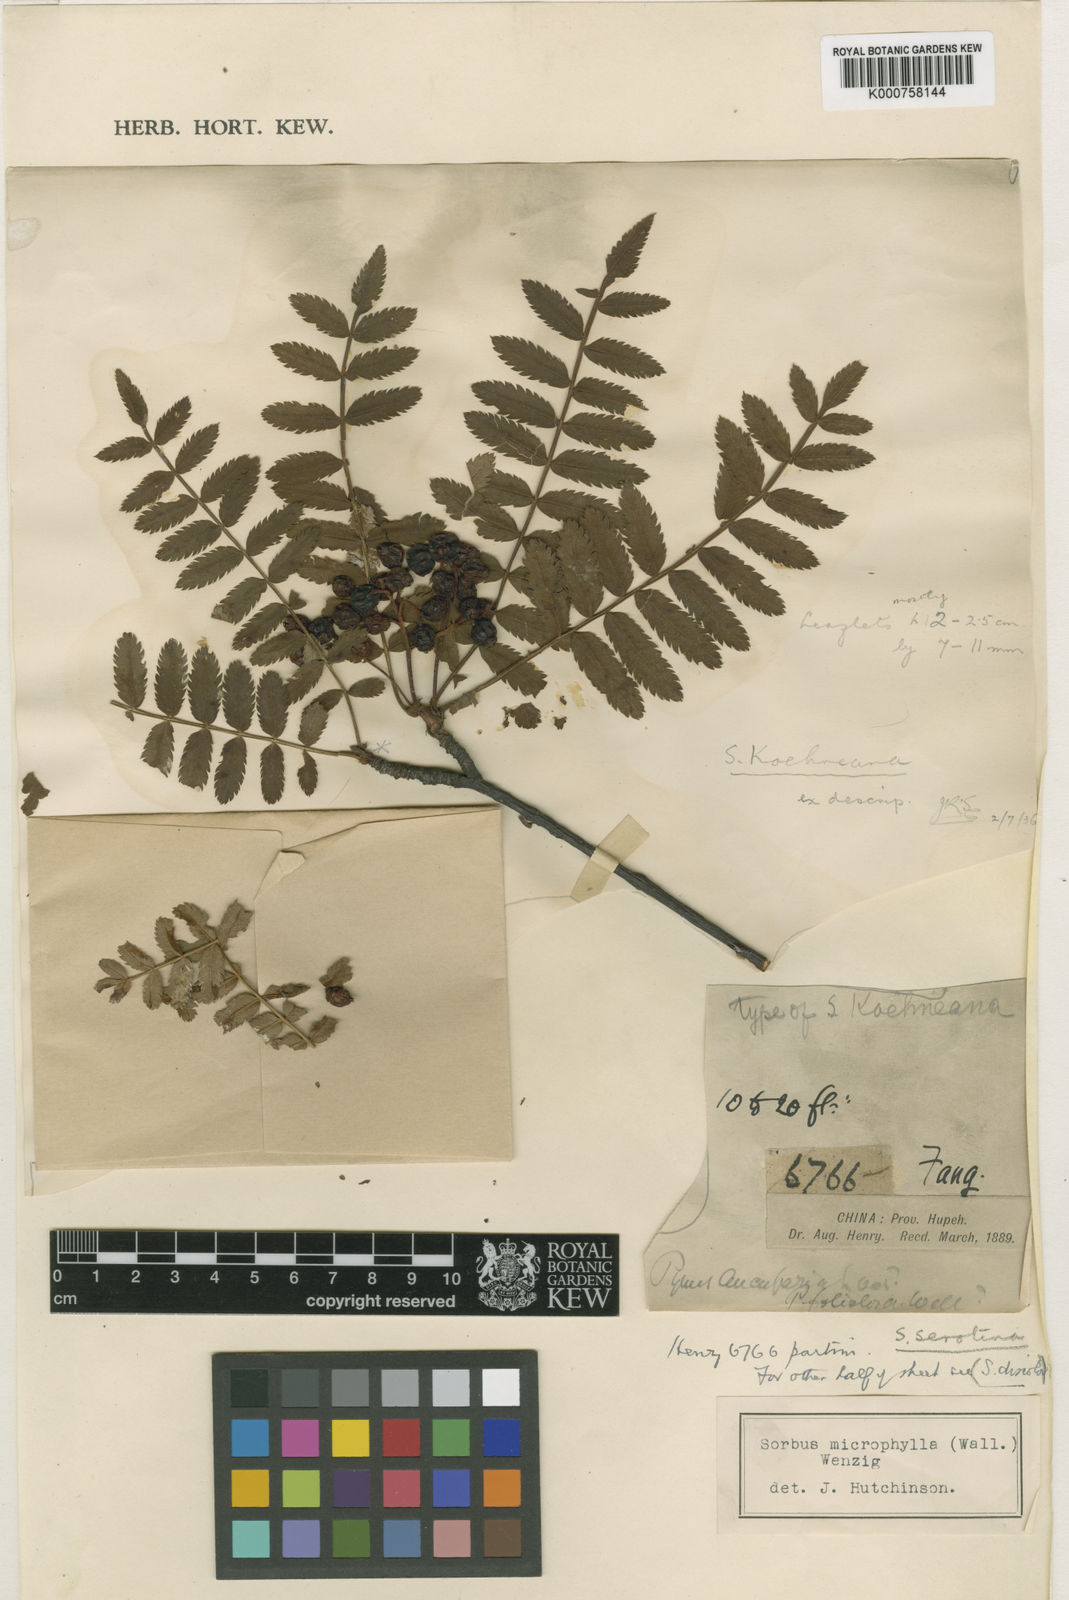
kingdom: Plantae
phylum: Tracheophyta
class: Magnoliopsida
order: Rosales
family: Rosaceae
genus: Sorbus
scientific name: Sorbus koehneana
